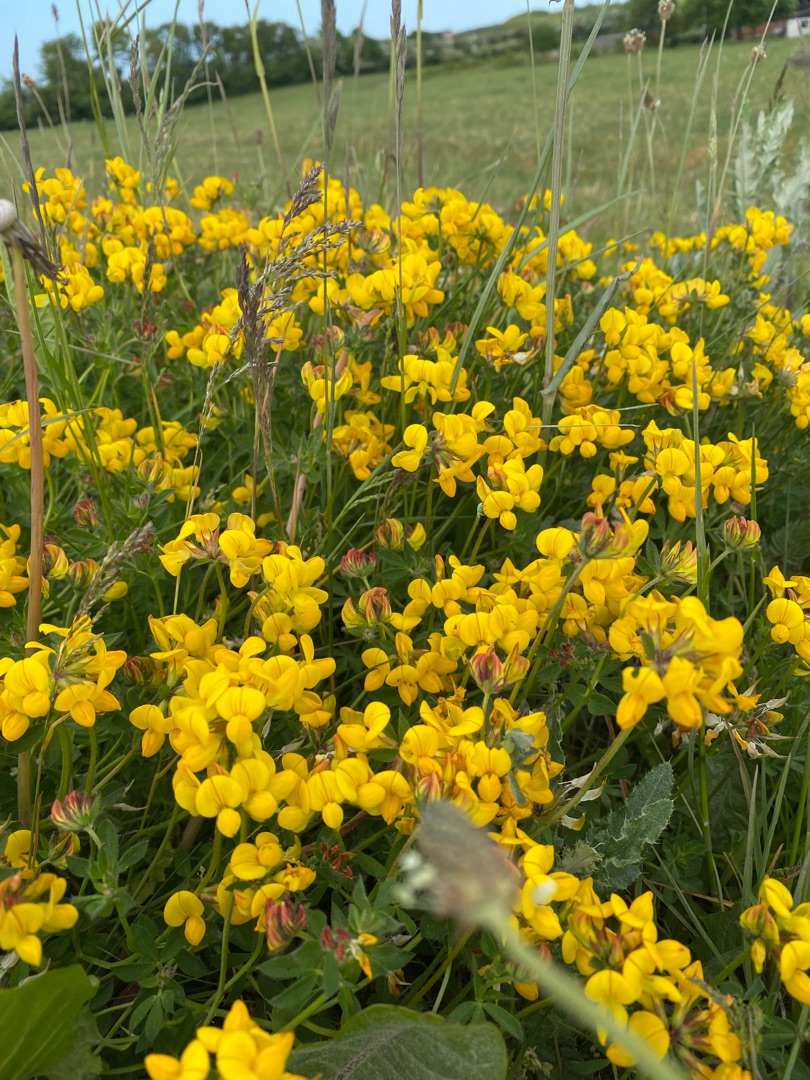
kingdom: Plantae
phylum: Tracheophyta
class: Magnoliopsida
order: Fabales
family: Fabaceae
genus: Lotus
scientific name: Lotus corniculatus
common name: Almindelig kællingetand
